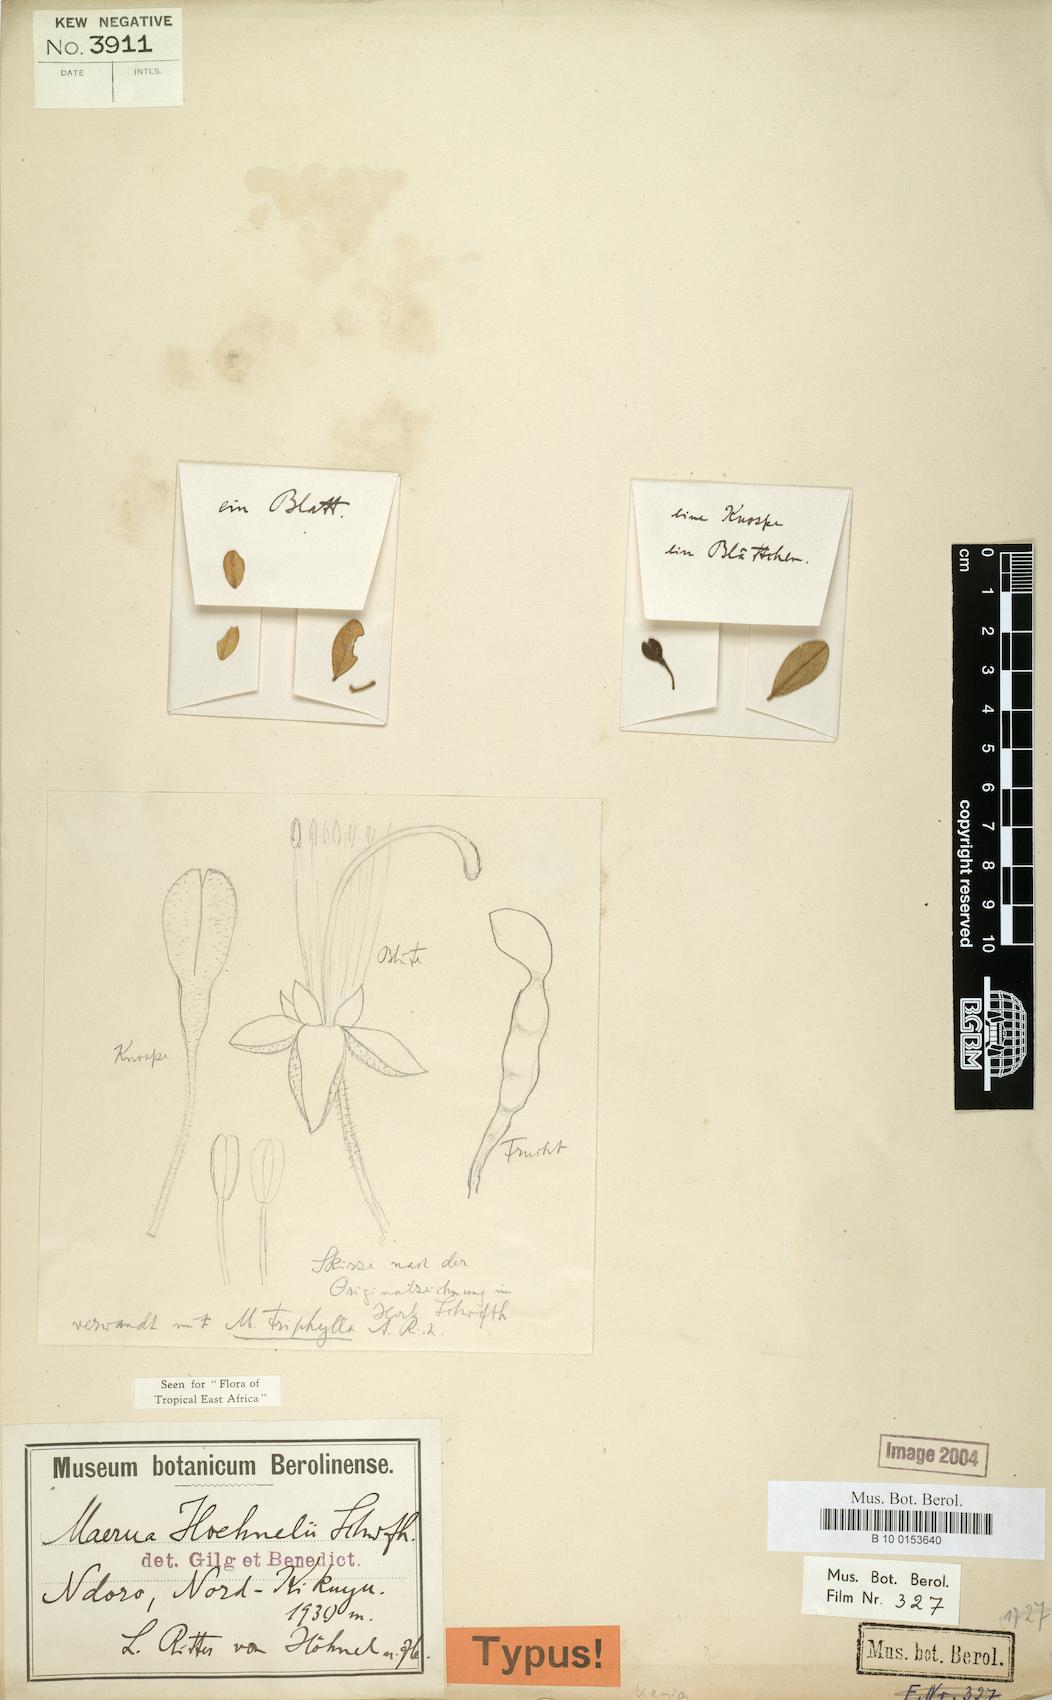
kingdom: Plantae
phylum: Tracheophyta
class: Magnoliopsida
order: Brassicales
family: Capparaceae
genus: Maerua
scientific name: Maerua triphylla
